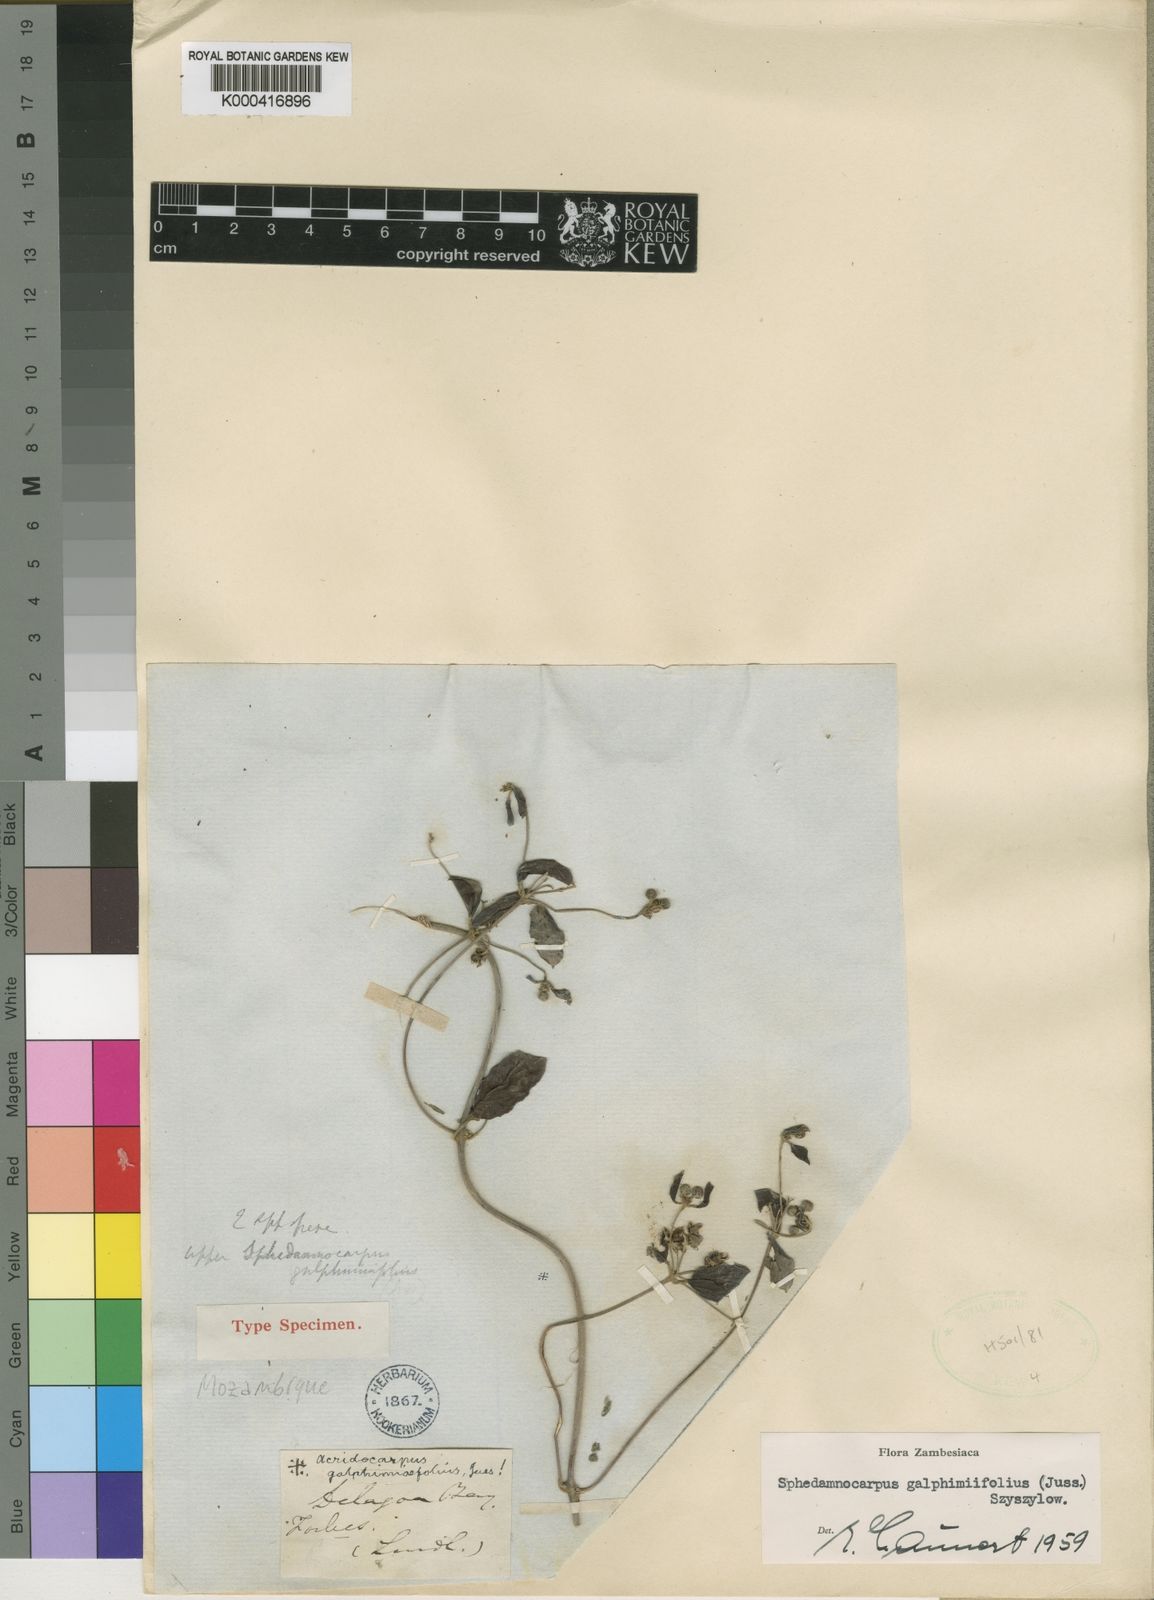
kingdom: Plantae
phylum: Tracheophyta
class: Magnoliopsida
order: Malpighiales
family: Malpighiaceae
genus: Sphedamnocarpus
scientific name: Sphedamnocarpus galphimiifolius
